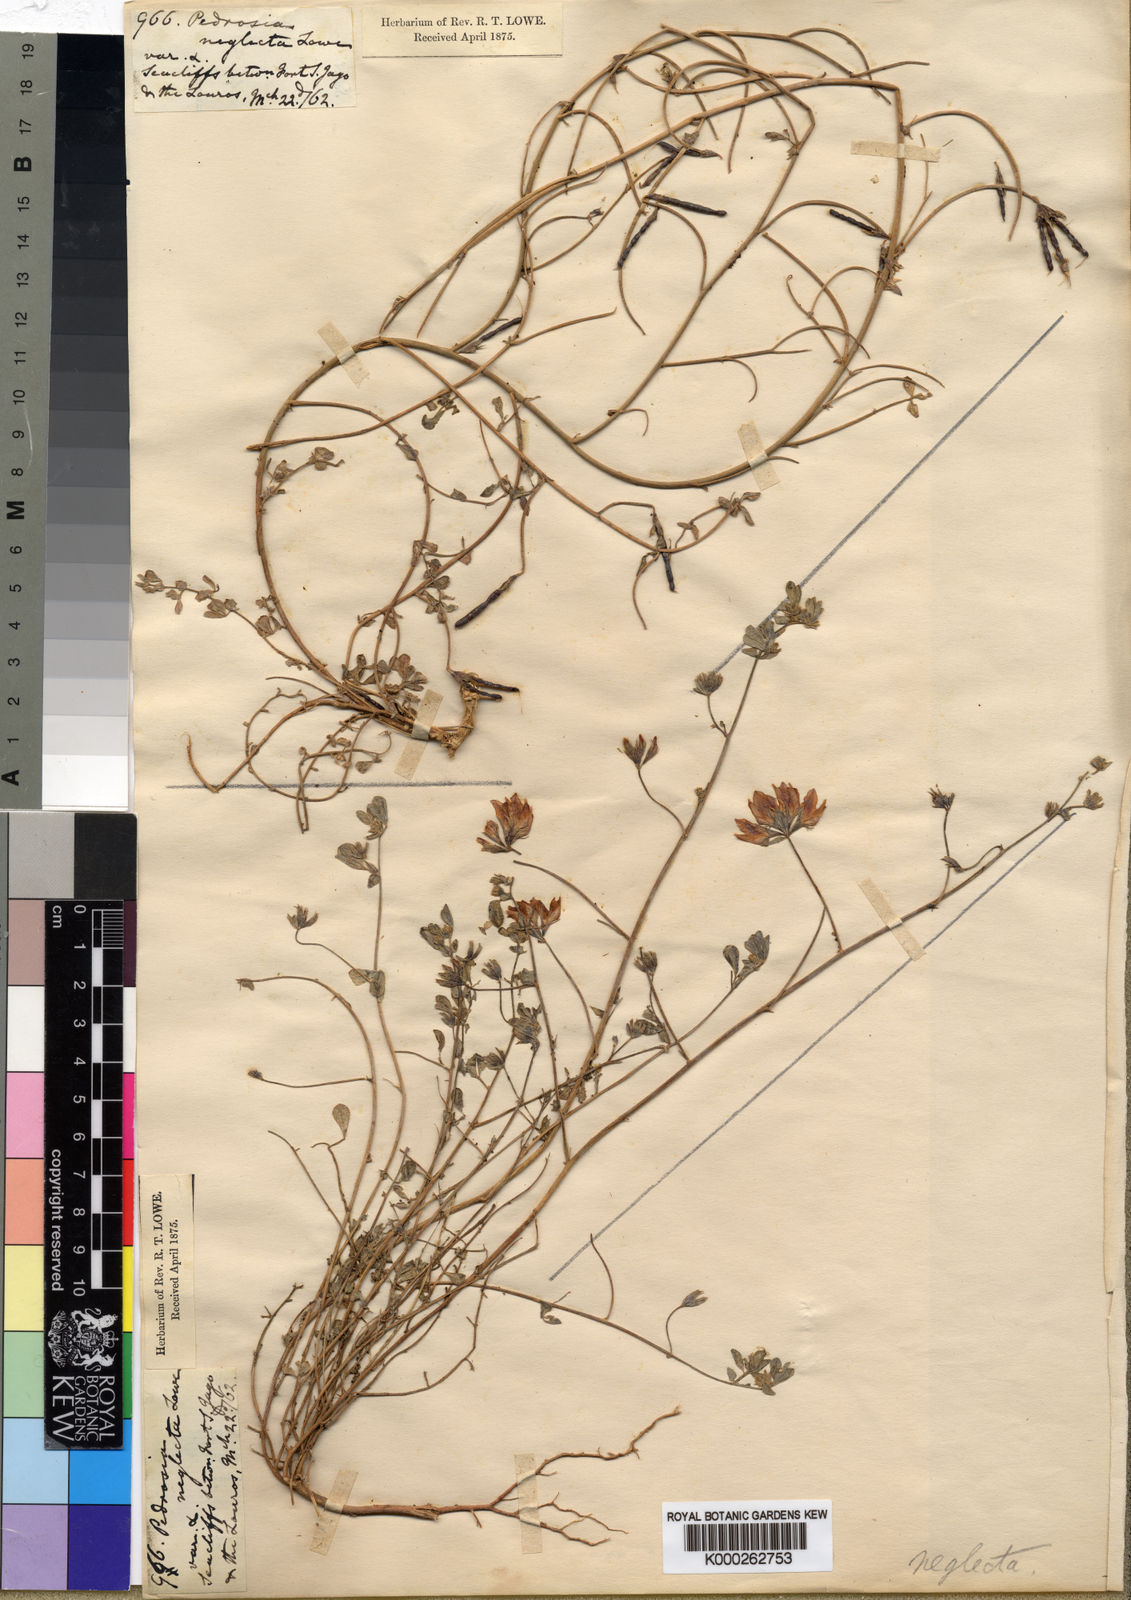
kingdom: Plantae
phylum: Tracheophyta
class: Magnoliopsida
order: Fabales
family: Fabaceae
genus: Lotus
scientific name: Lotus glaucus
